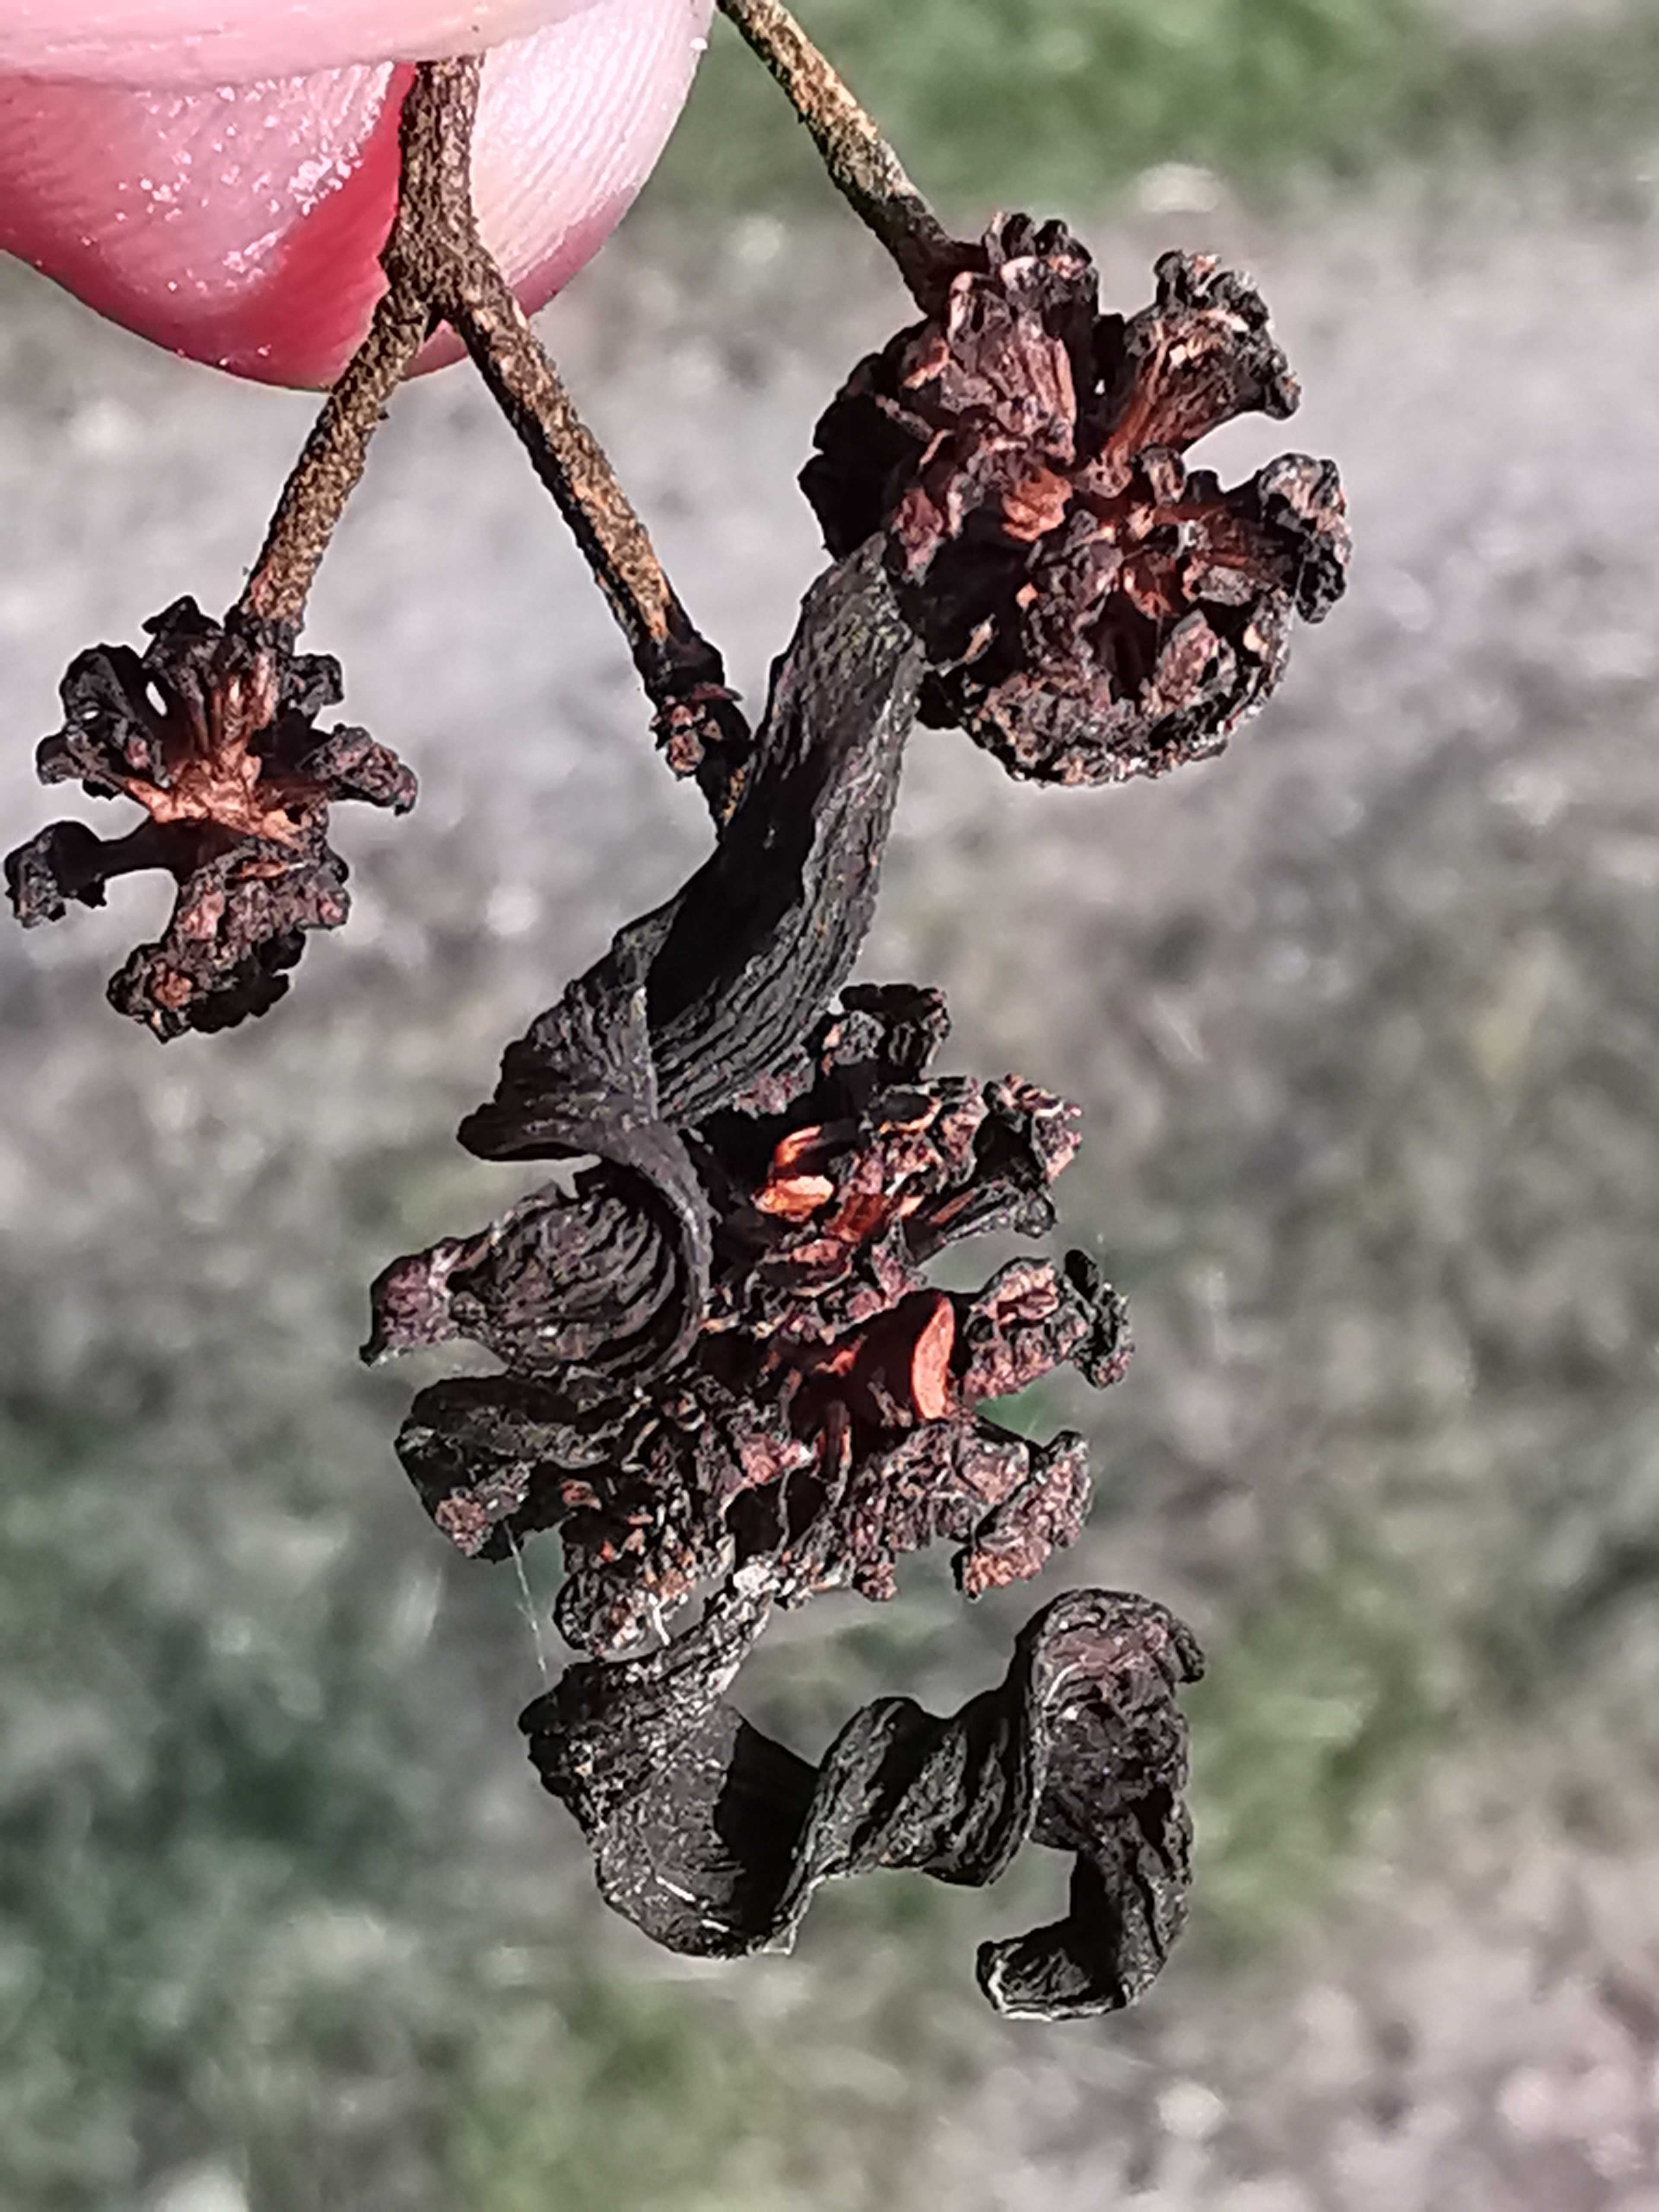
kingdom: Fungi
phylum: Ascomycota
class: Taphrinomycetes
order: Taphrinales
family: Taphrinaceae
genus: Taphrina
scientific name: Taphrina alni
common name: Alder tongue
